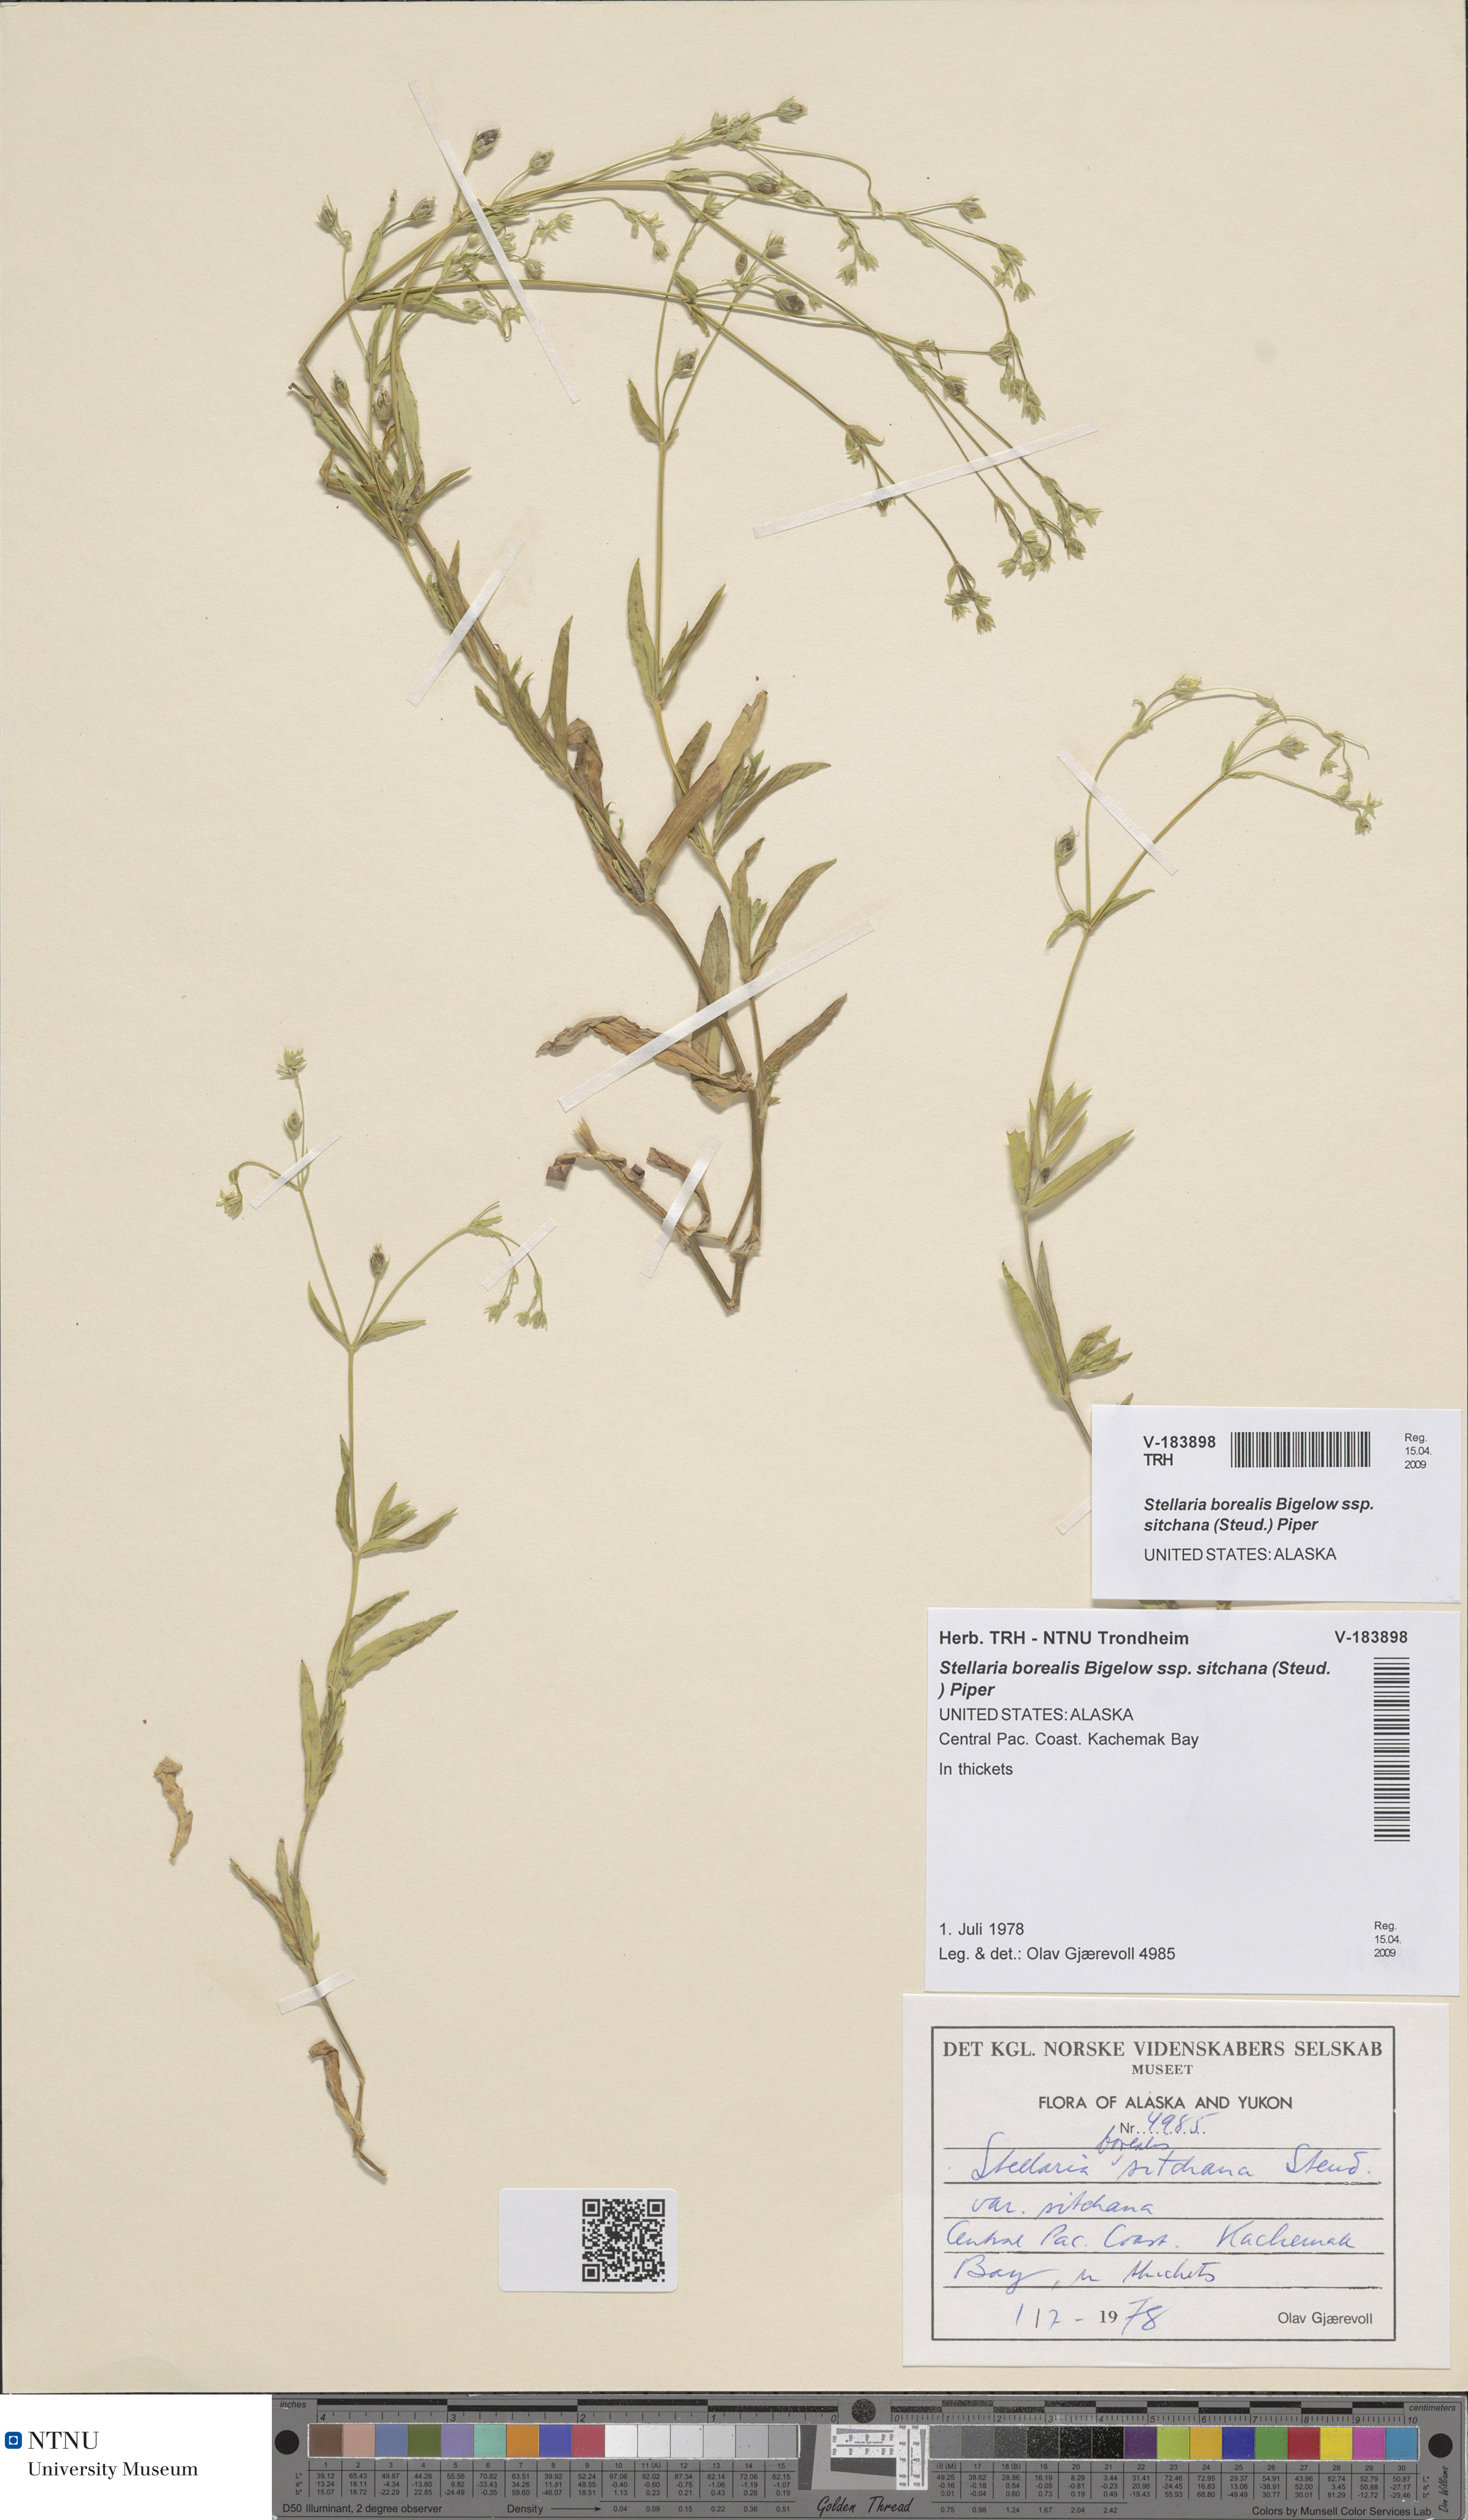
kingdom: Plantae
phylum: Tracheophyta
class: Magnoliopsida
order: Caryophyllales
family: Caryophyllaceae
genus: Stellaria
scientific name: Stellaria sitchana
